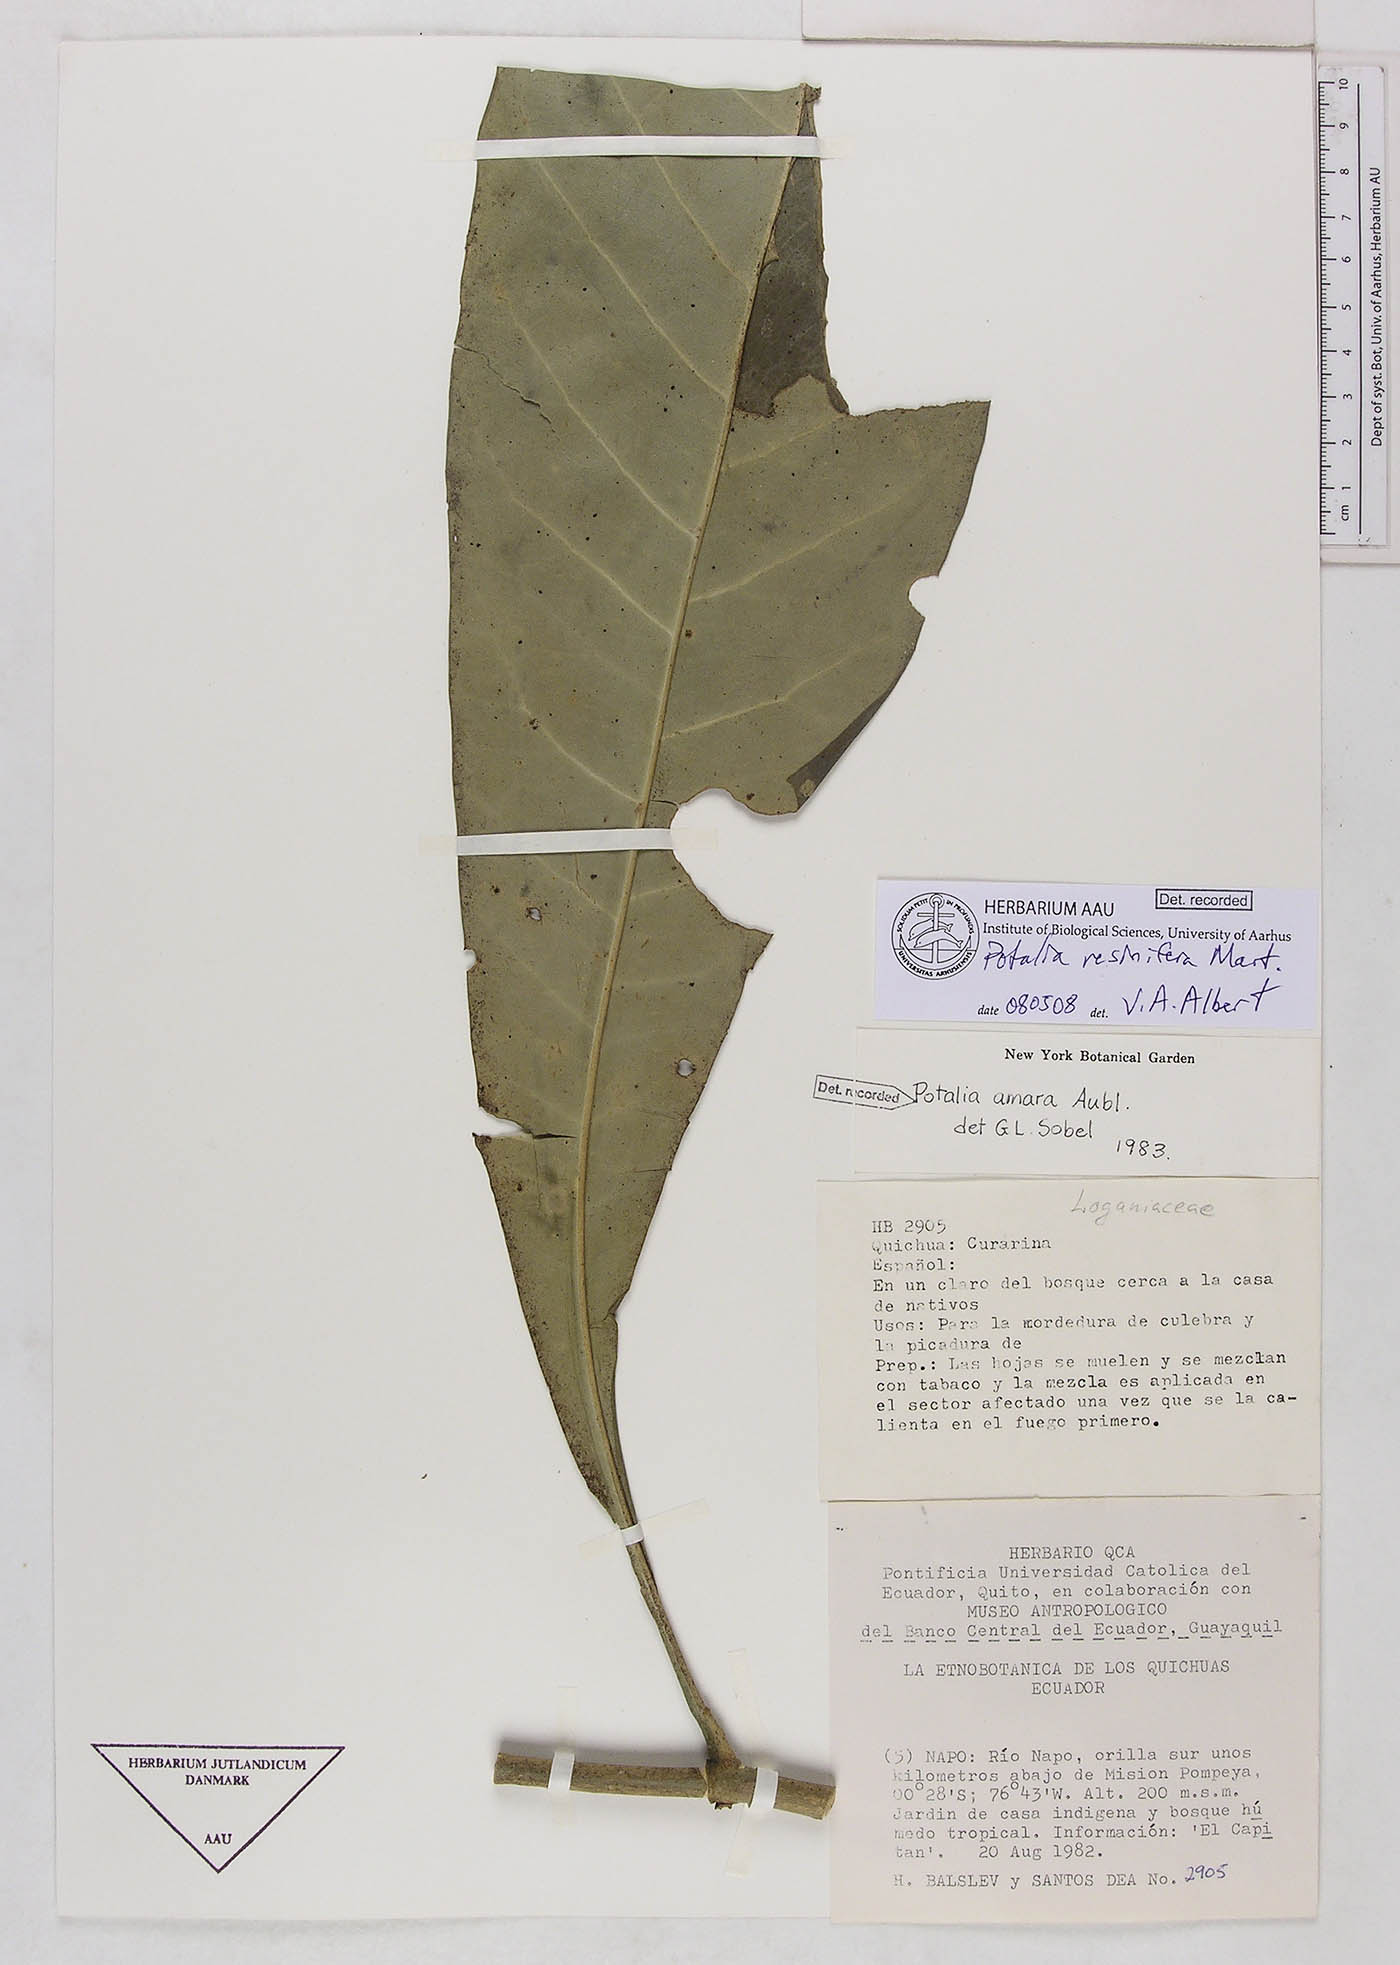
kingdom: Plantae
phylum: Tracheophyta
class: Magnoliopsida
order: Gentianales
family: Gentianaceae
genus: Potalia
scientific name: Potalia resinifera
